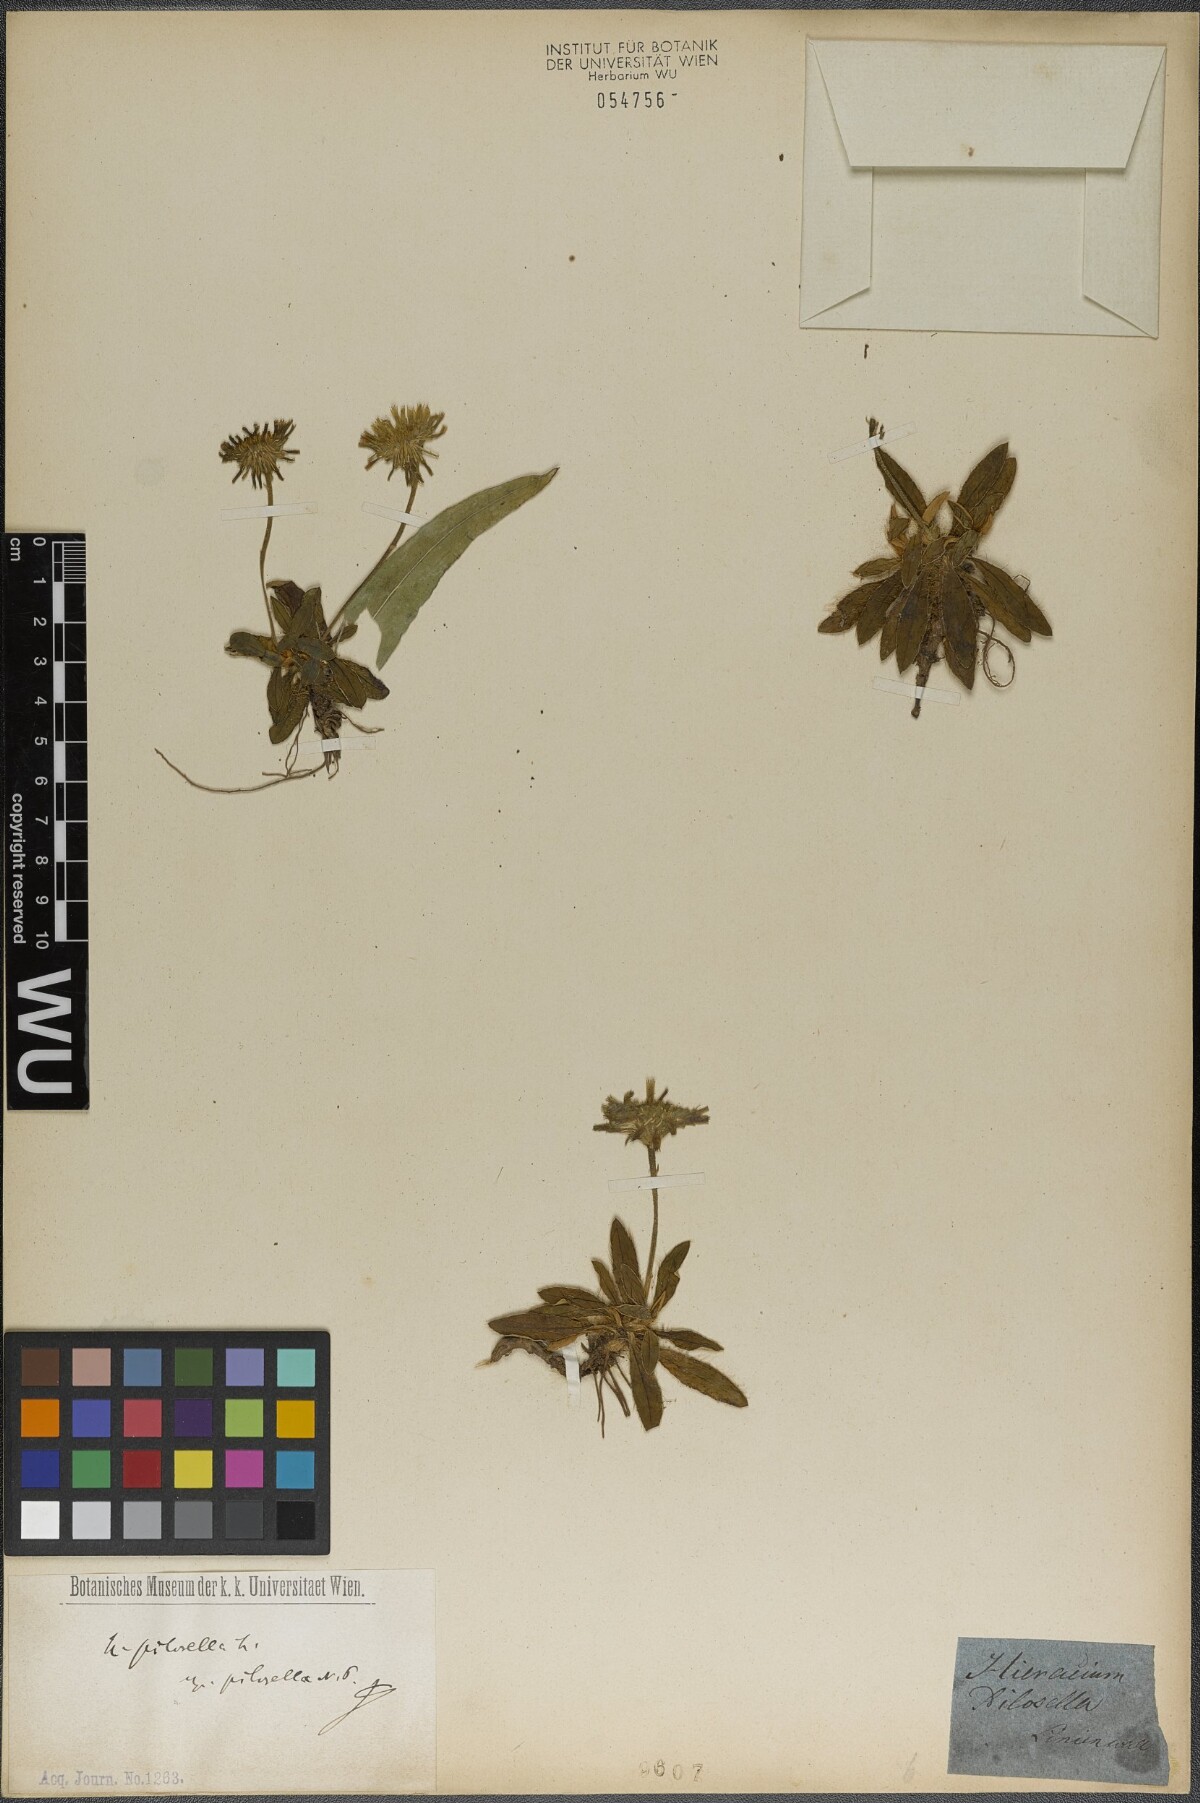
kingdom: Plantae
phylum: Tracheophyta
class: Magnoliopsida
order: Asterales
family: Asteraceae
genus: Pilosella
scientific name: Pilosella officinarum
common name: Mouse-ear hawkweed
